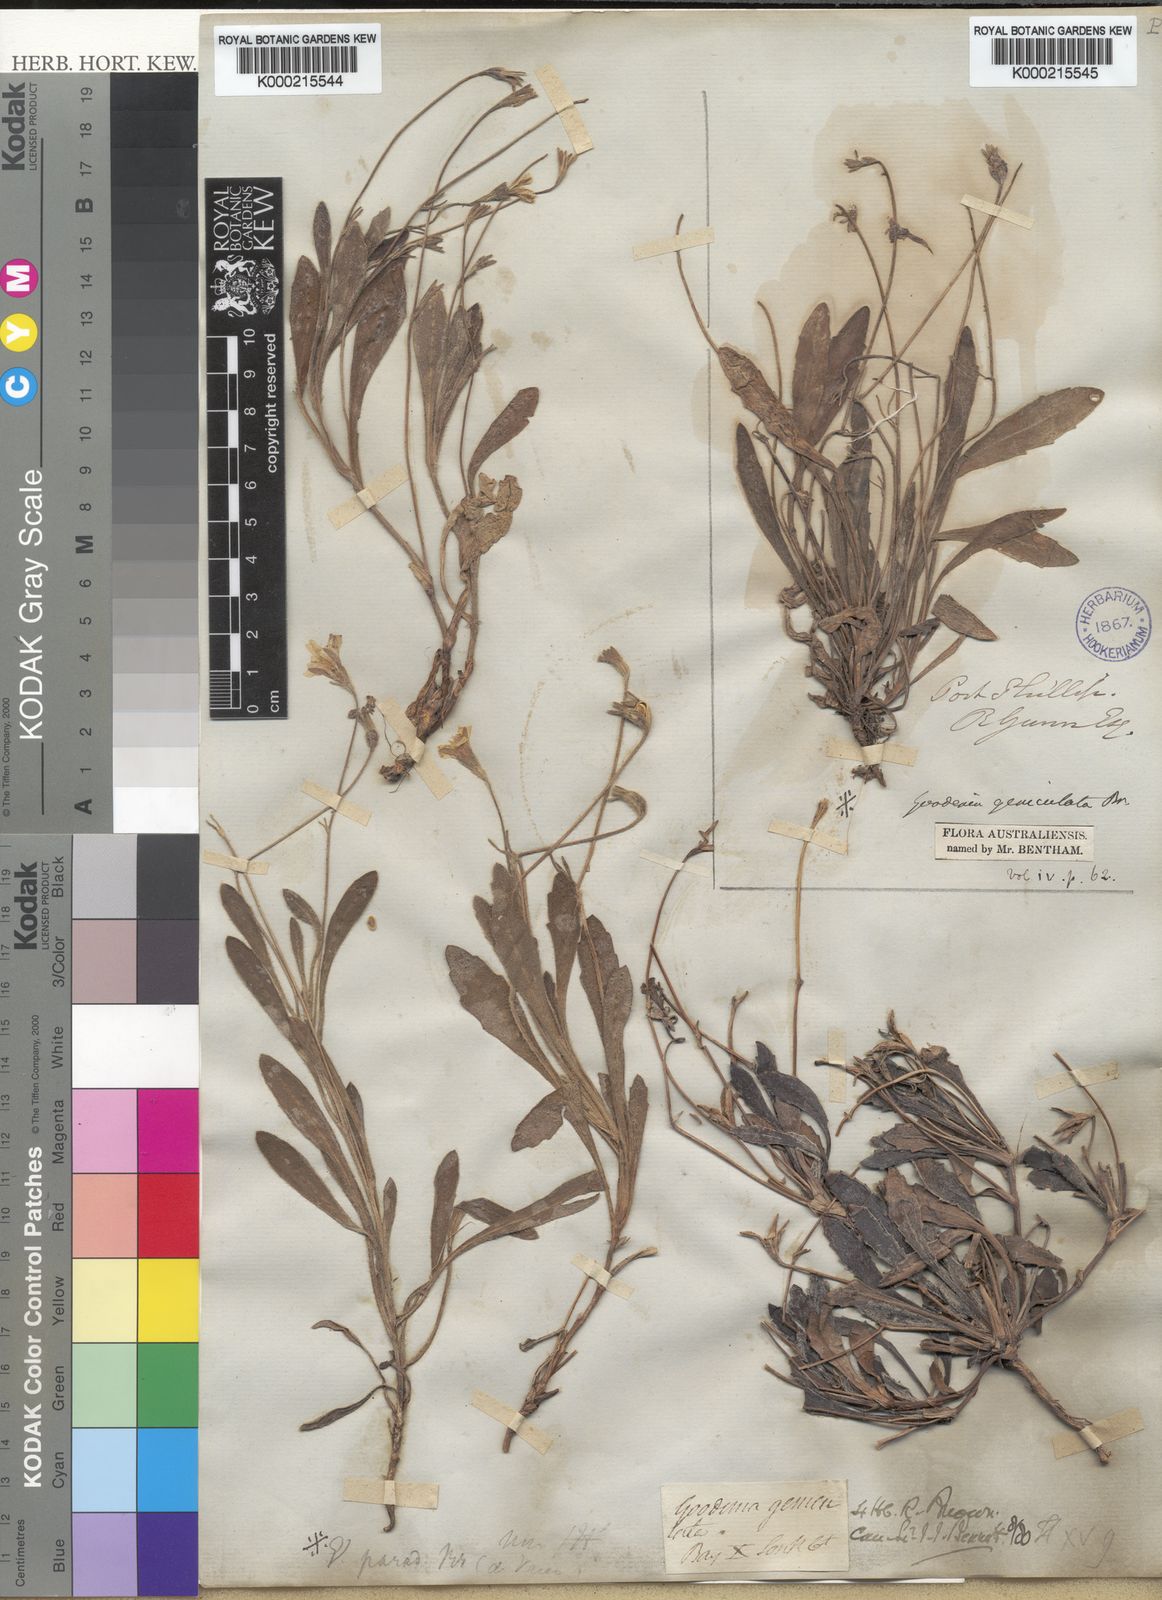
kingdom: Plantae
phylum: Tracheophyta
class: Magnoliopsida
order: Asterales
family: Goodeniaceae
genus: Goodenia
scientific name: Goodenia geniculata
